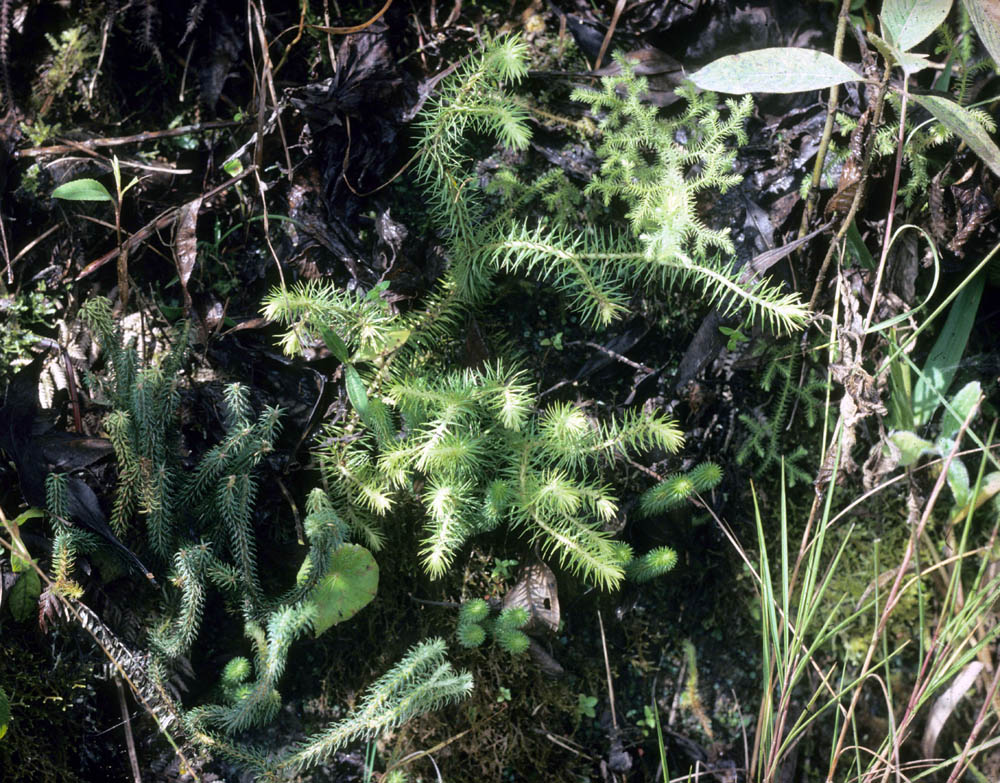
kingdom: Plantae
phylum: Tracheophyta
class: Lycopodiopsida
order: Lycopodiales
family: Lycopodiaceae
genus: Lycopodium
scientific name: Lycopodium
